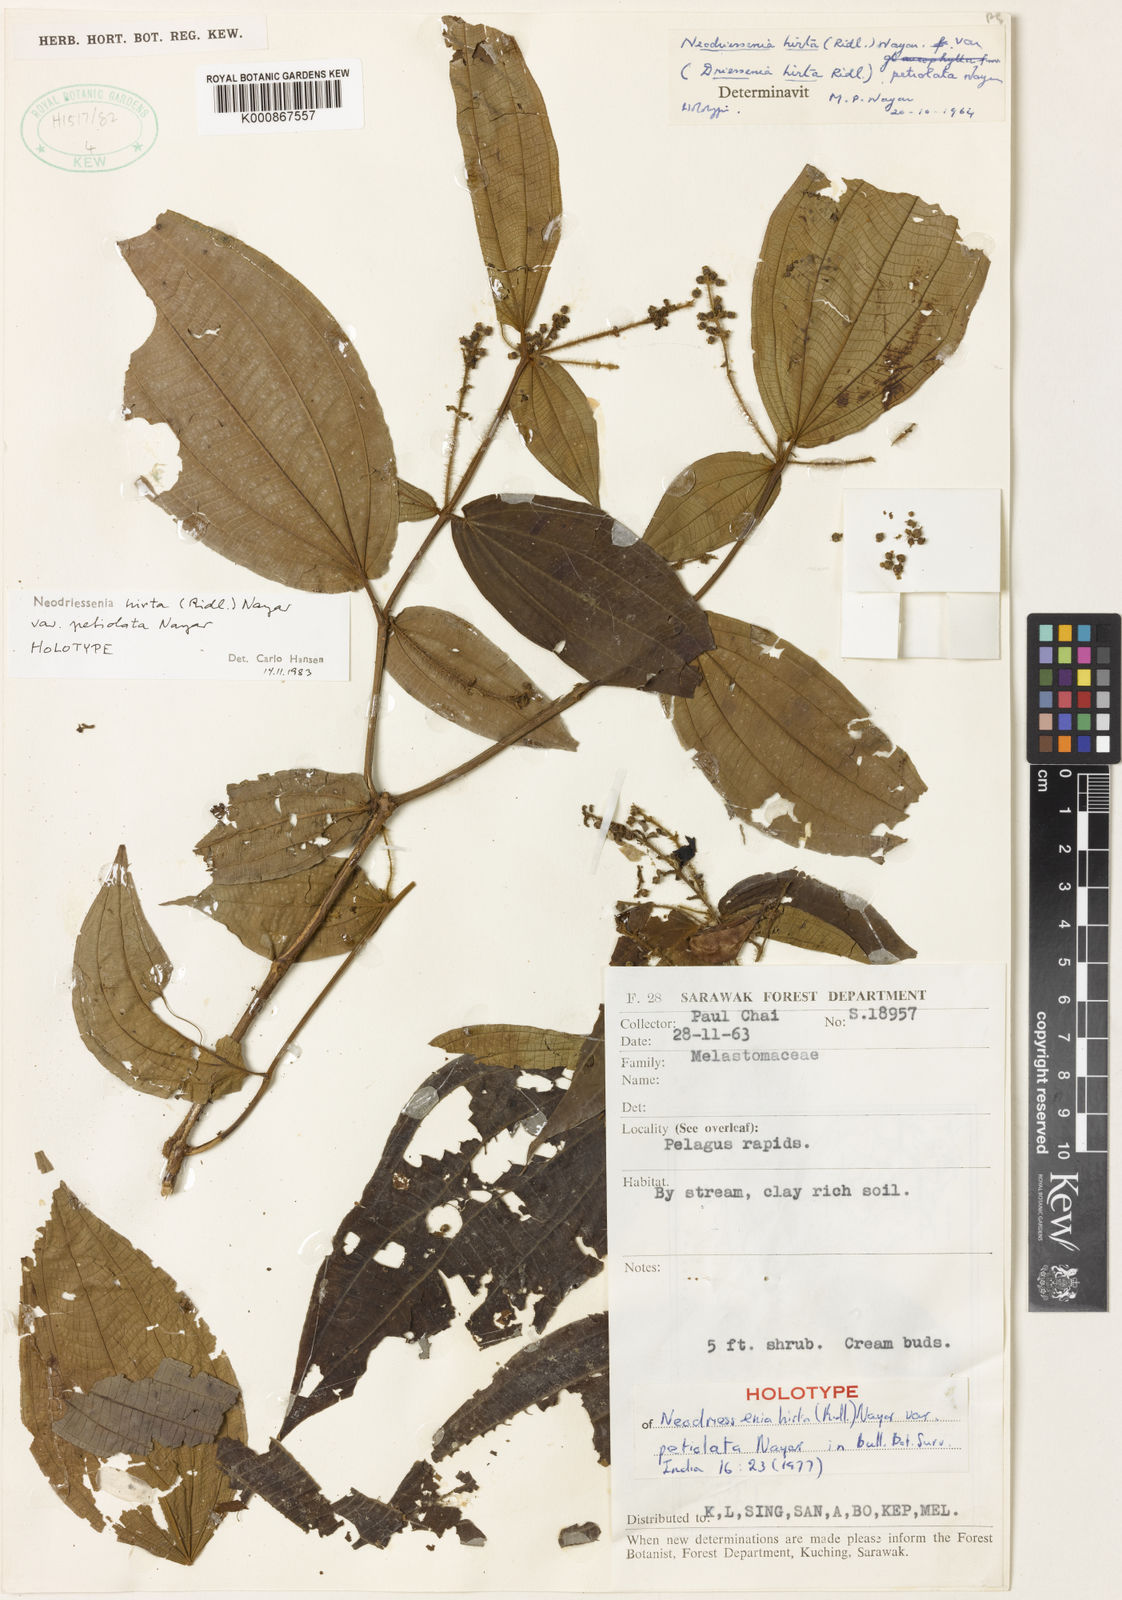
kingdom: Plantae
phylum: Tracheophyta
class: Magnoliopsida
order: Myrtales
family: Melastomataceae
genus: Neodriessenia
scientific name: Neodriessenia hirta
